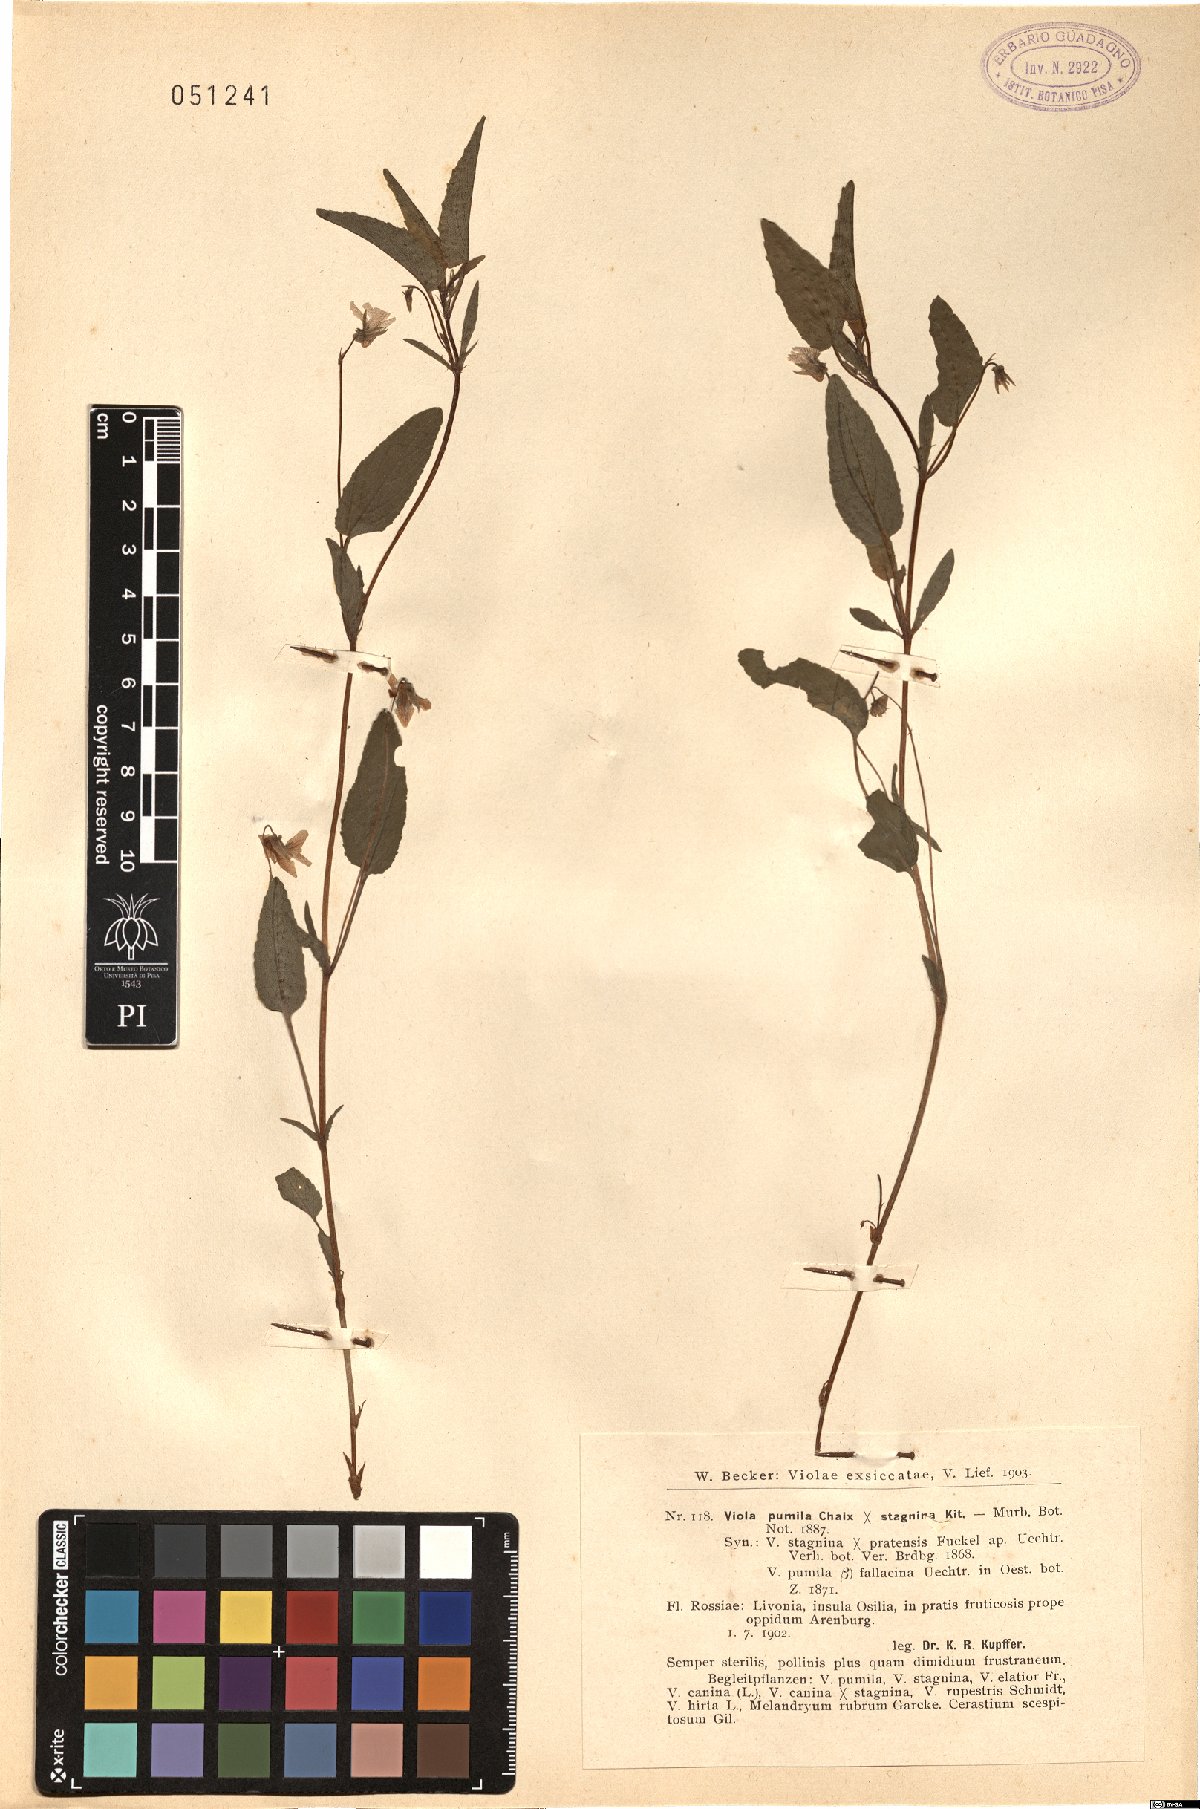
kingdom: Plantae
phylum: Tracheophyta
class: Magnoliopsida
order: Malpighiales
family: Violaceae
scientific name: Violaceae
